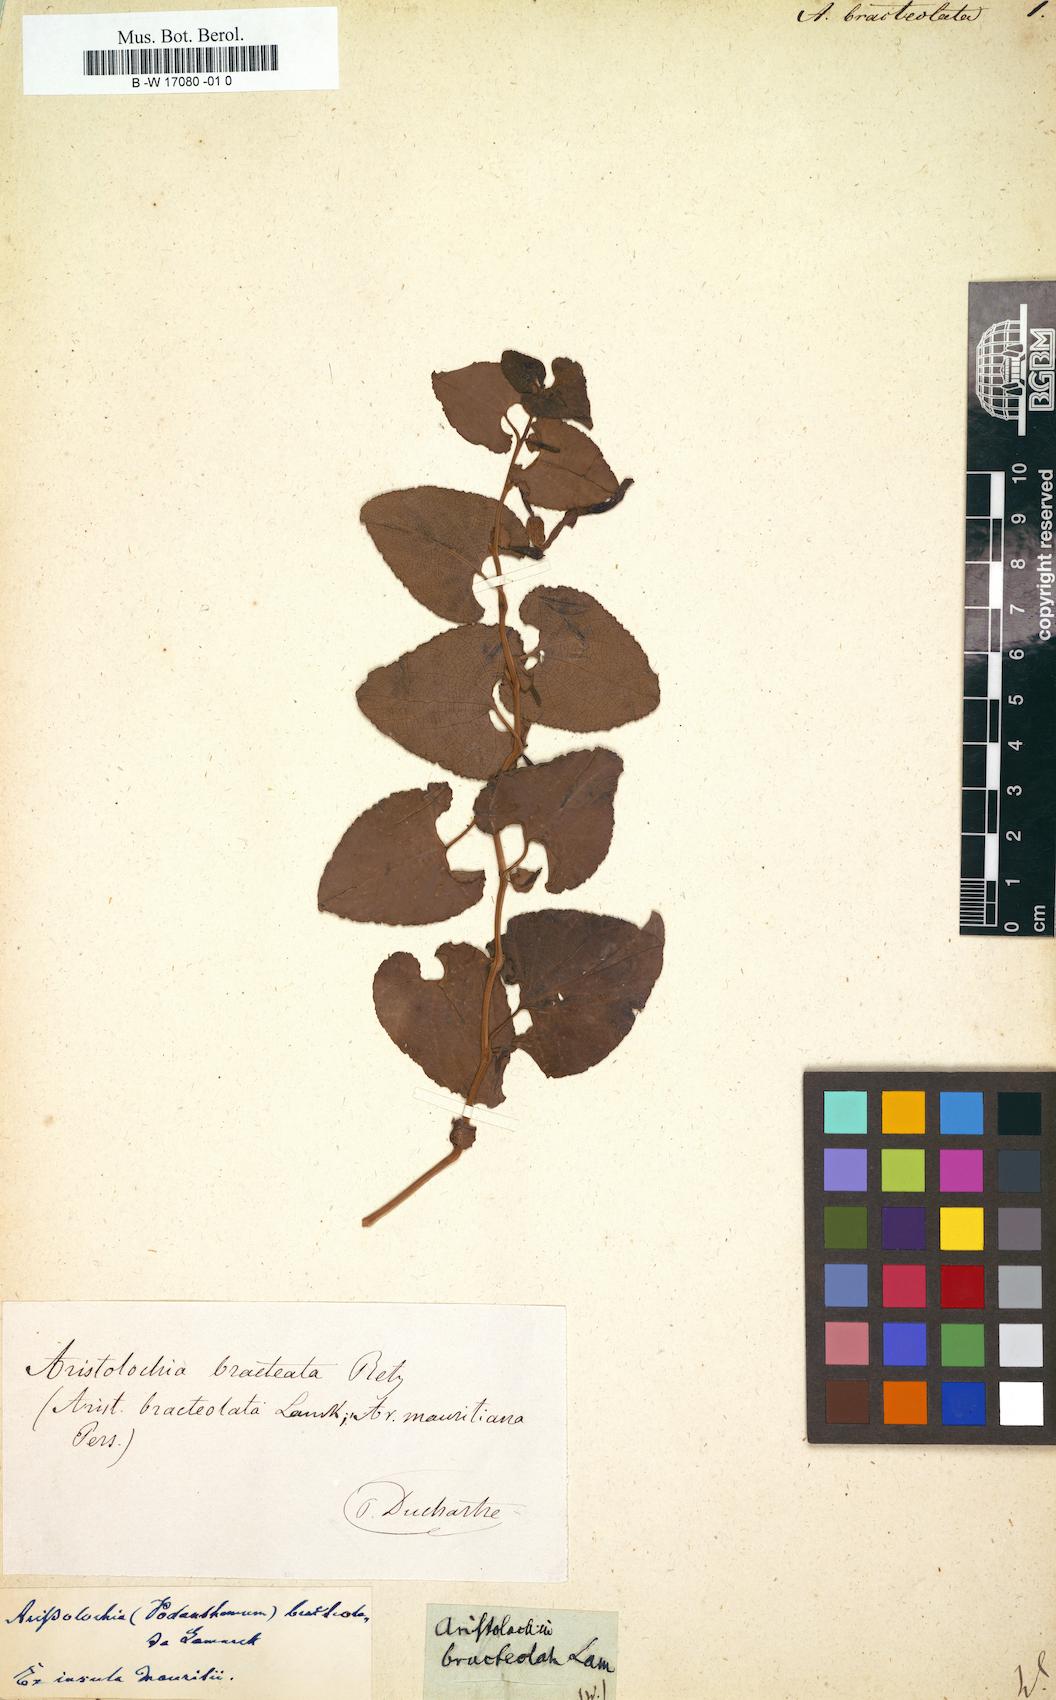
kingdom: Plantae
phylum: Tracheophyta
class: Magnoliopsida
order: Piperales
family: Aristolochiaceae
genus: Aristolochia
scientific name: Aristolochia bracteolata
